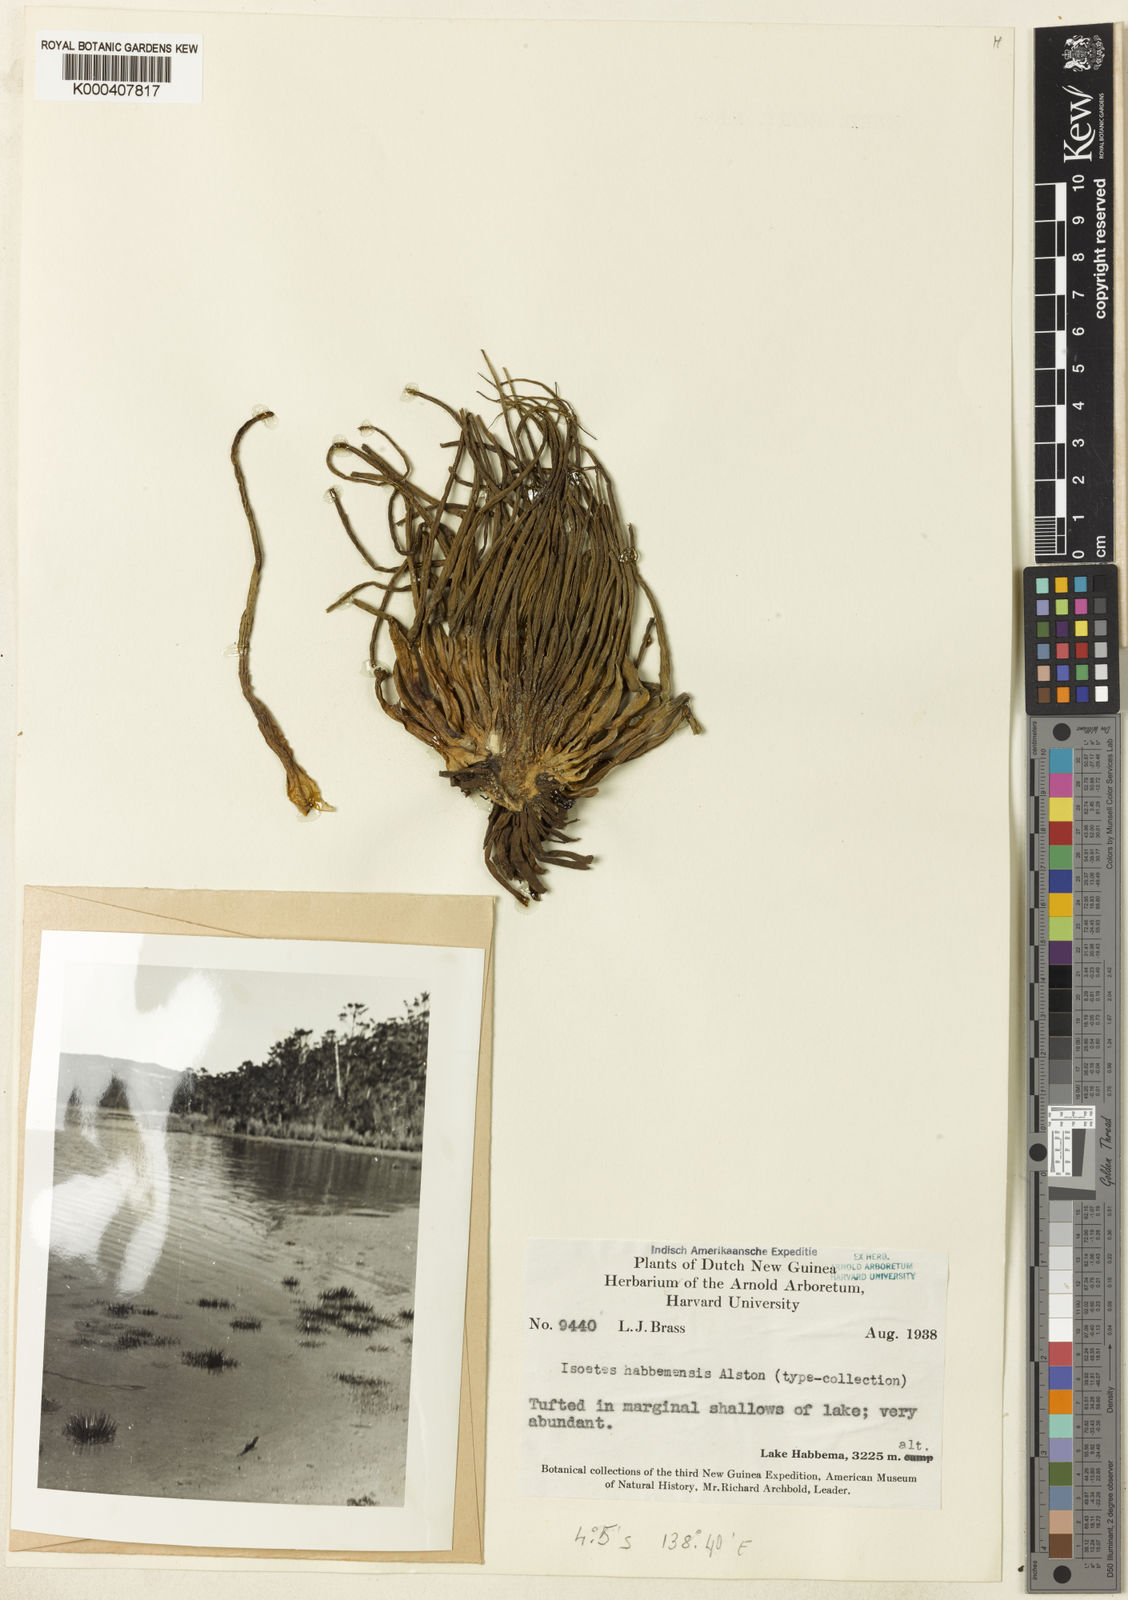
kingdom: Plantae
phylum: Tracheophyta
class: Lycopodiopsida
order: Isoetales
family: Isoetaceae
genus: Isoetes
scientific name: Isoetes habbemensis
